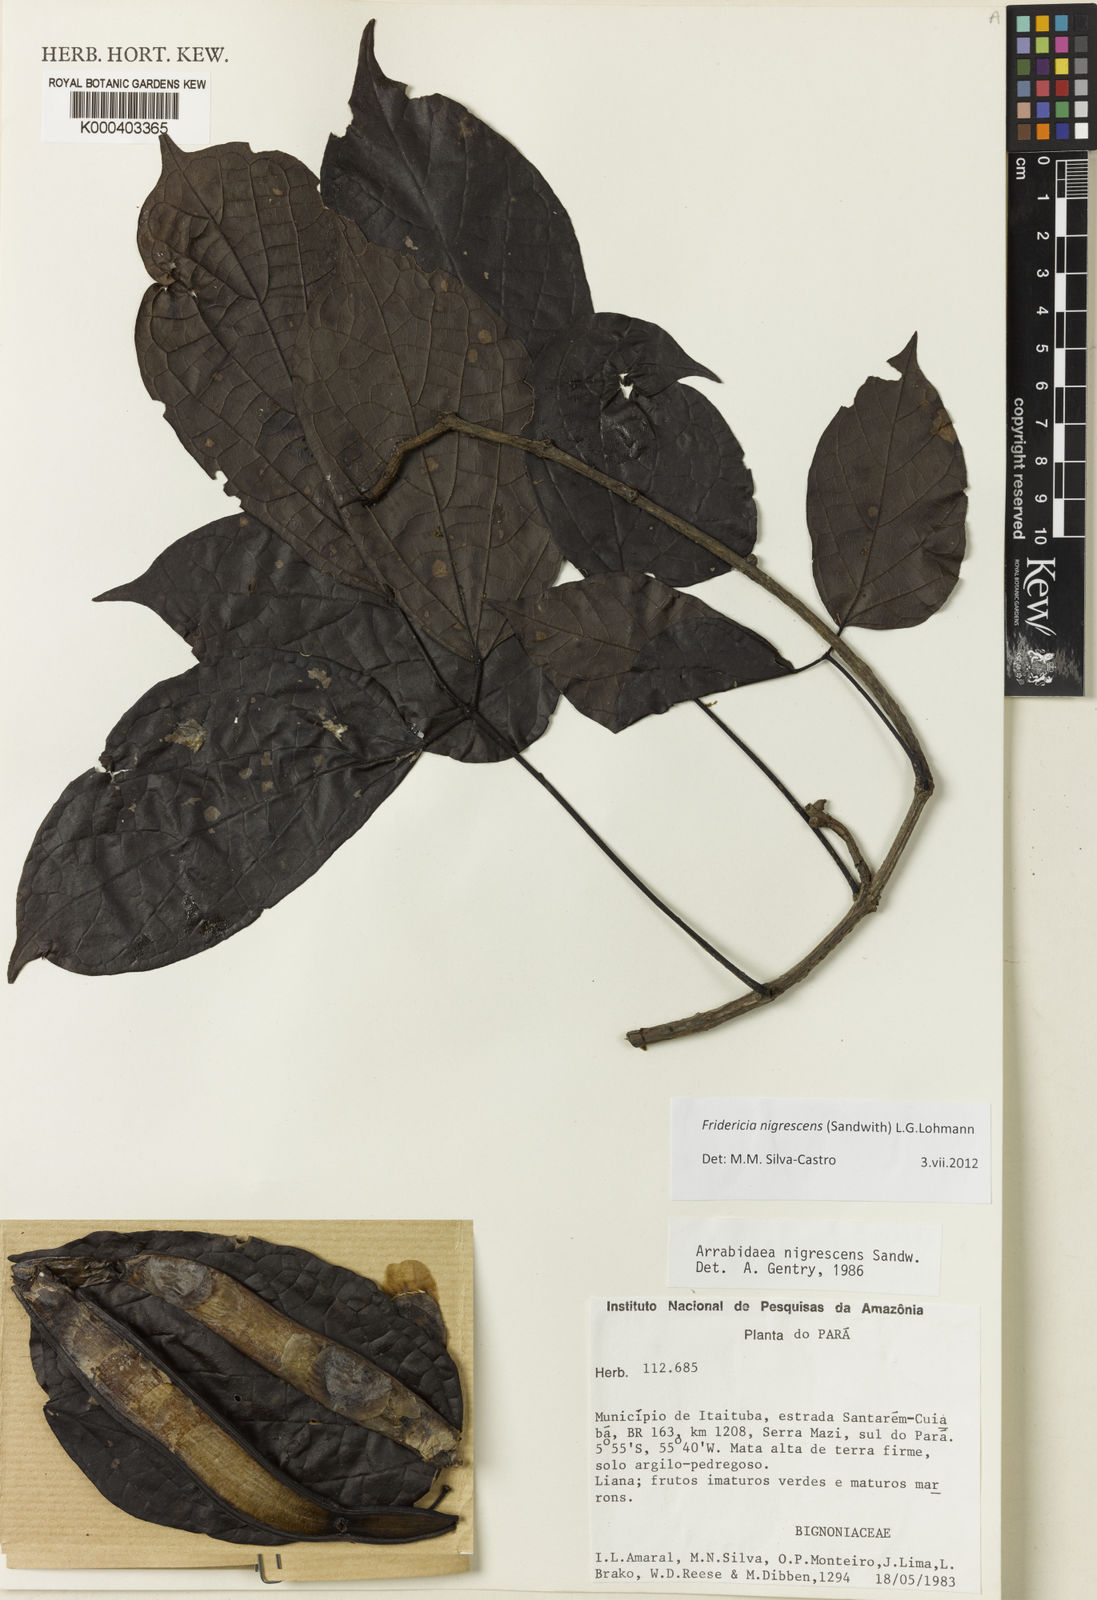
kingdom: Plantae
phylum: Tracheophyta
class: Magnoliopsida
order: Lamiales
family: Bignoniaceae
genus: Fridericia
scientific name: Fridericia nigrescens
